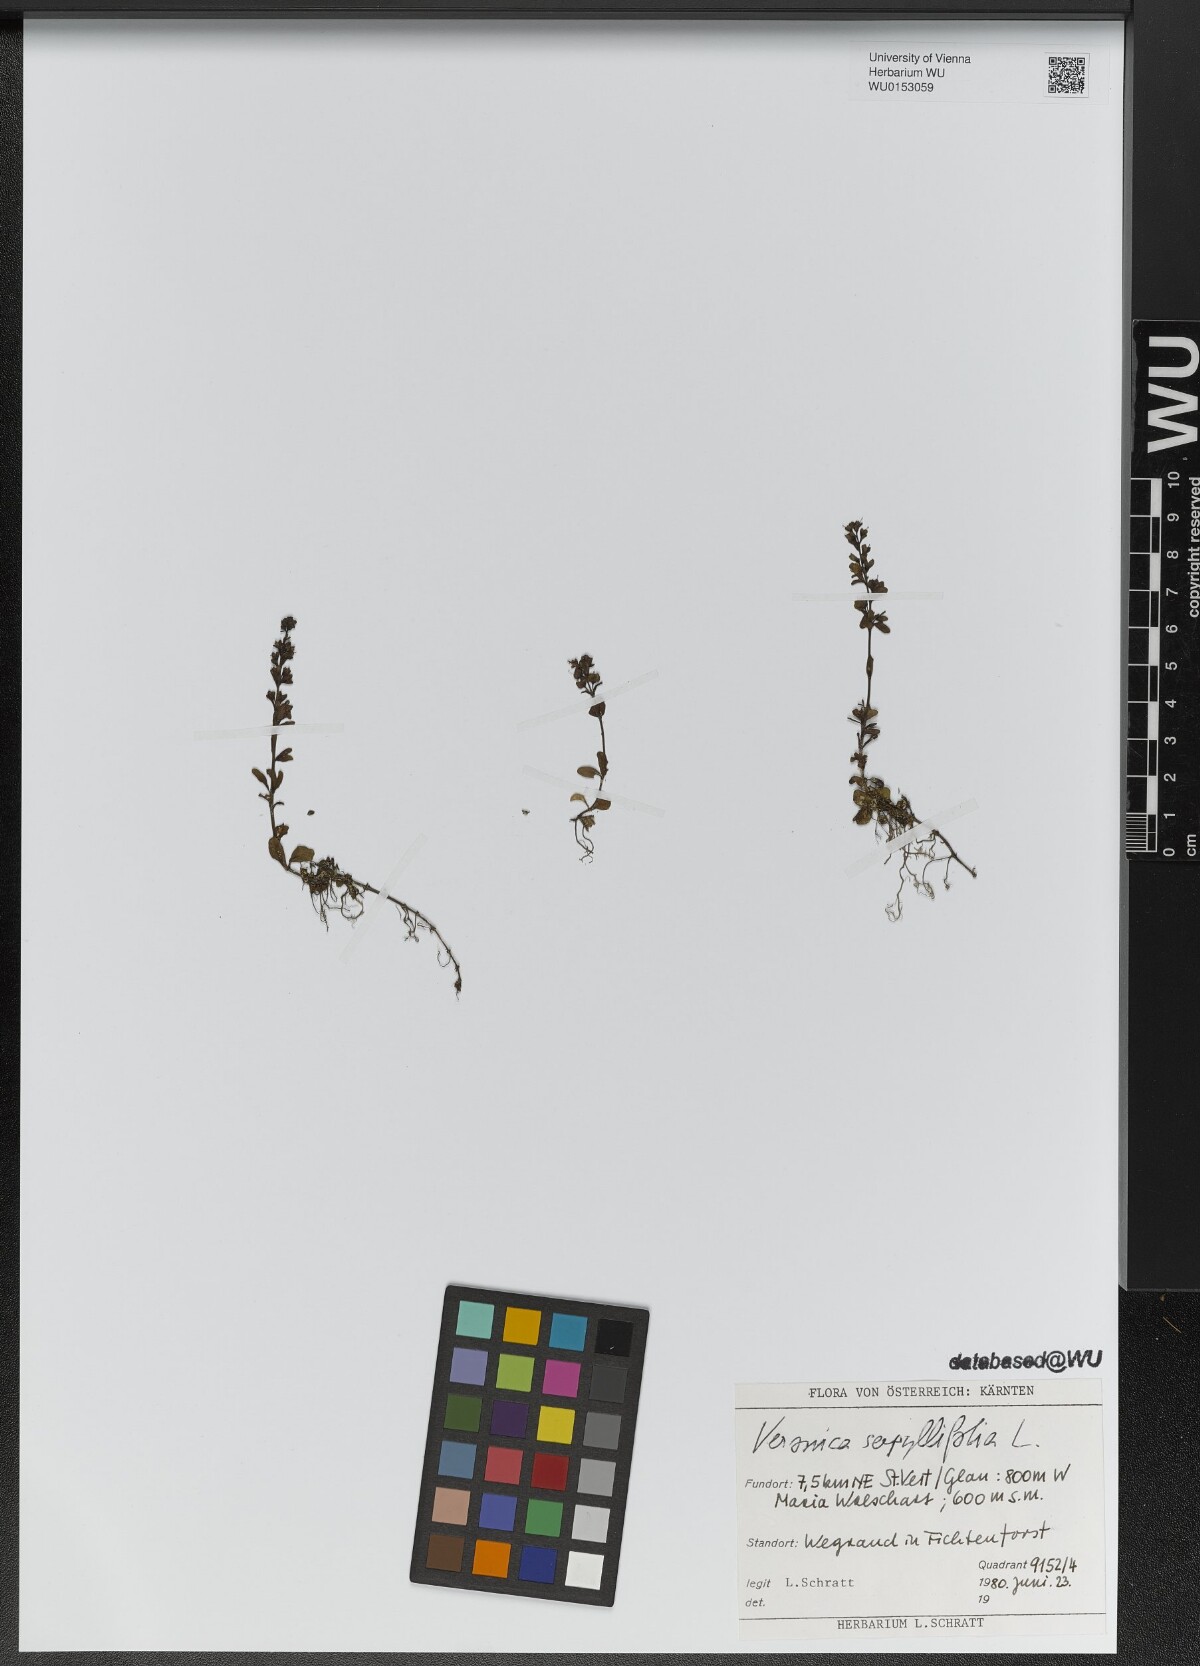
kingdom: Plantae
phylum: Tracheophyta
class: Magnoliopsida
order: Lamiales
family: Plantaginaceae
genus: Veronica
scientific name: Veronica serpyllifolia
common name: Thyme-leaved speedwell
